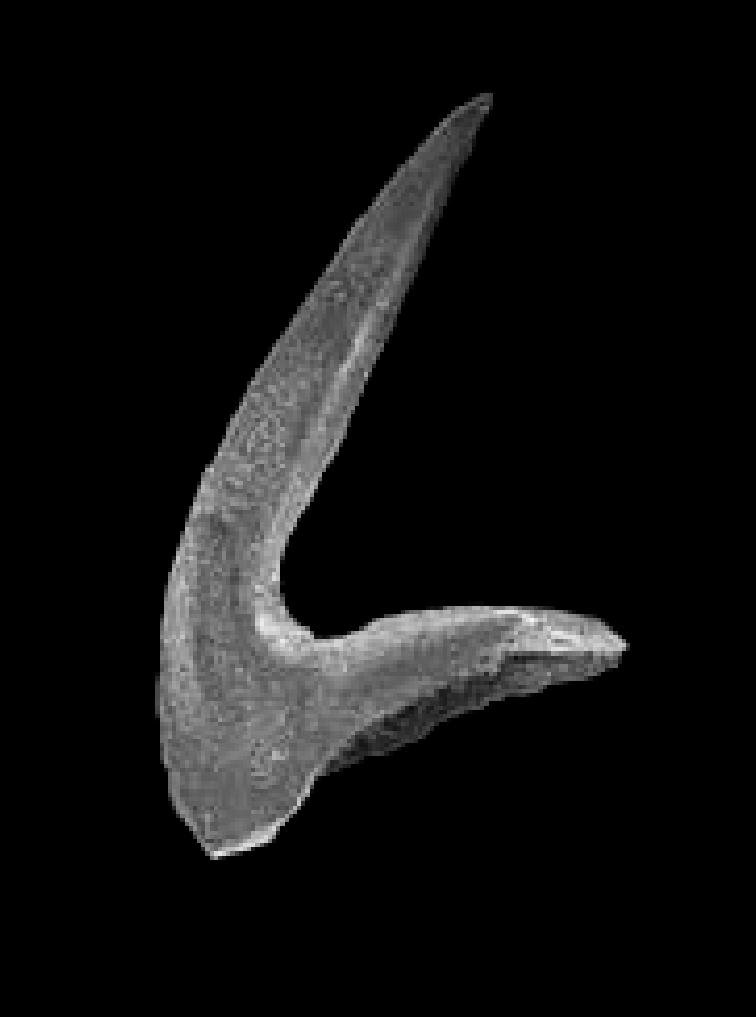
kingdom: Animalia
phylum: Chordata
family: Acodontidae
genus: Tripodus
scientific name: Tripodus
